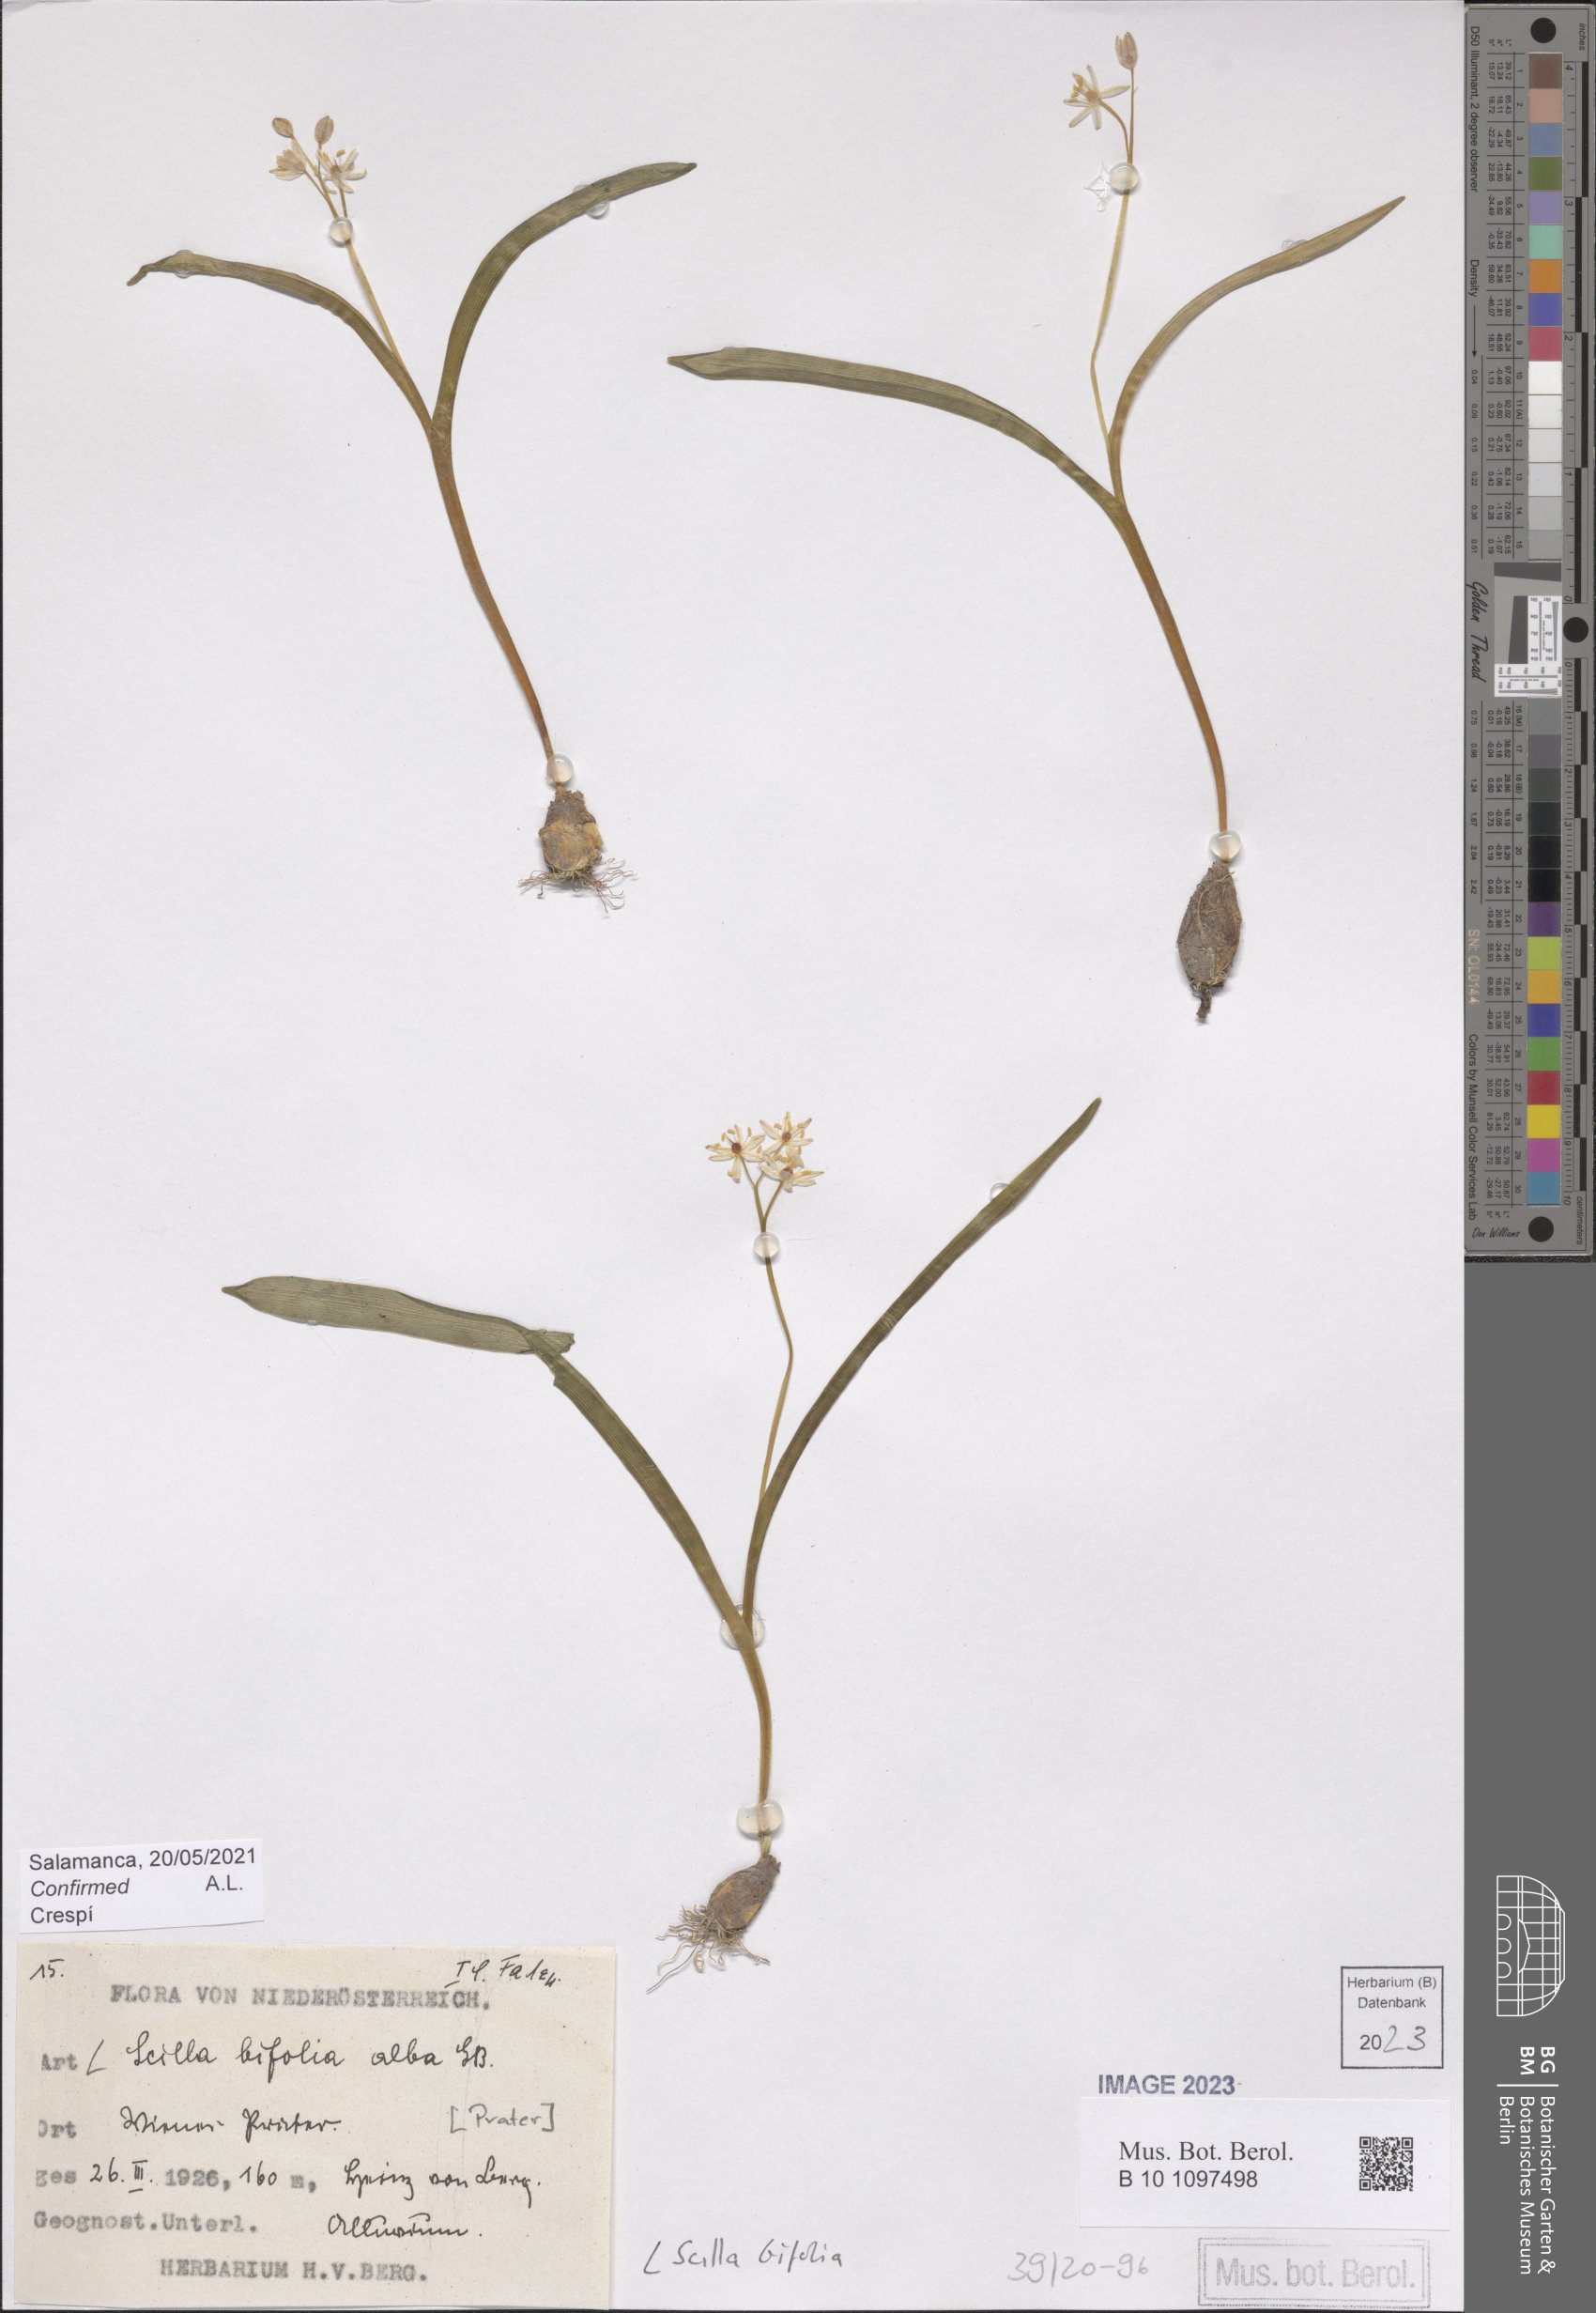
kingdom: Plantae
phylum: Tracheophyta
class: Liliopsida
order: Asparagales
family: Asparagaceae
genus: Scilla
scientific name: Scilla bifolia
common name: Alpine squill
